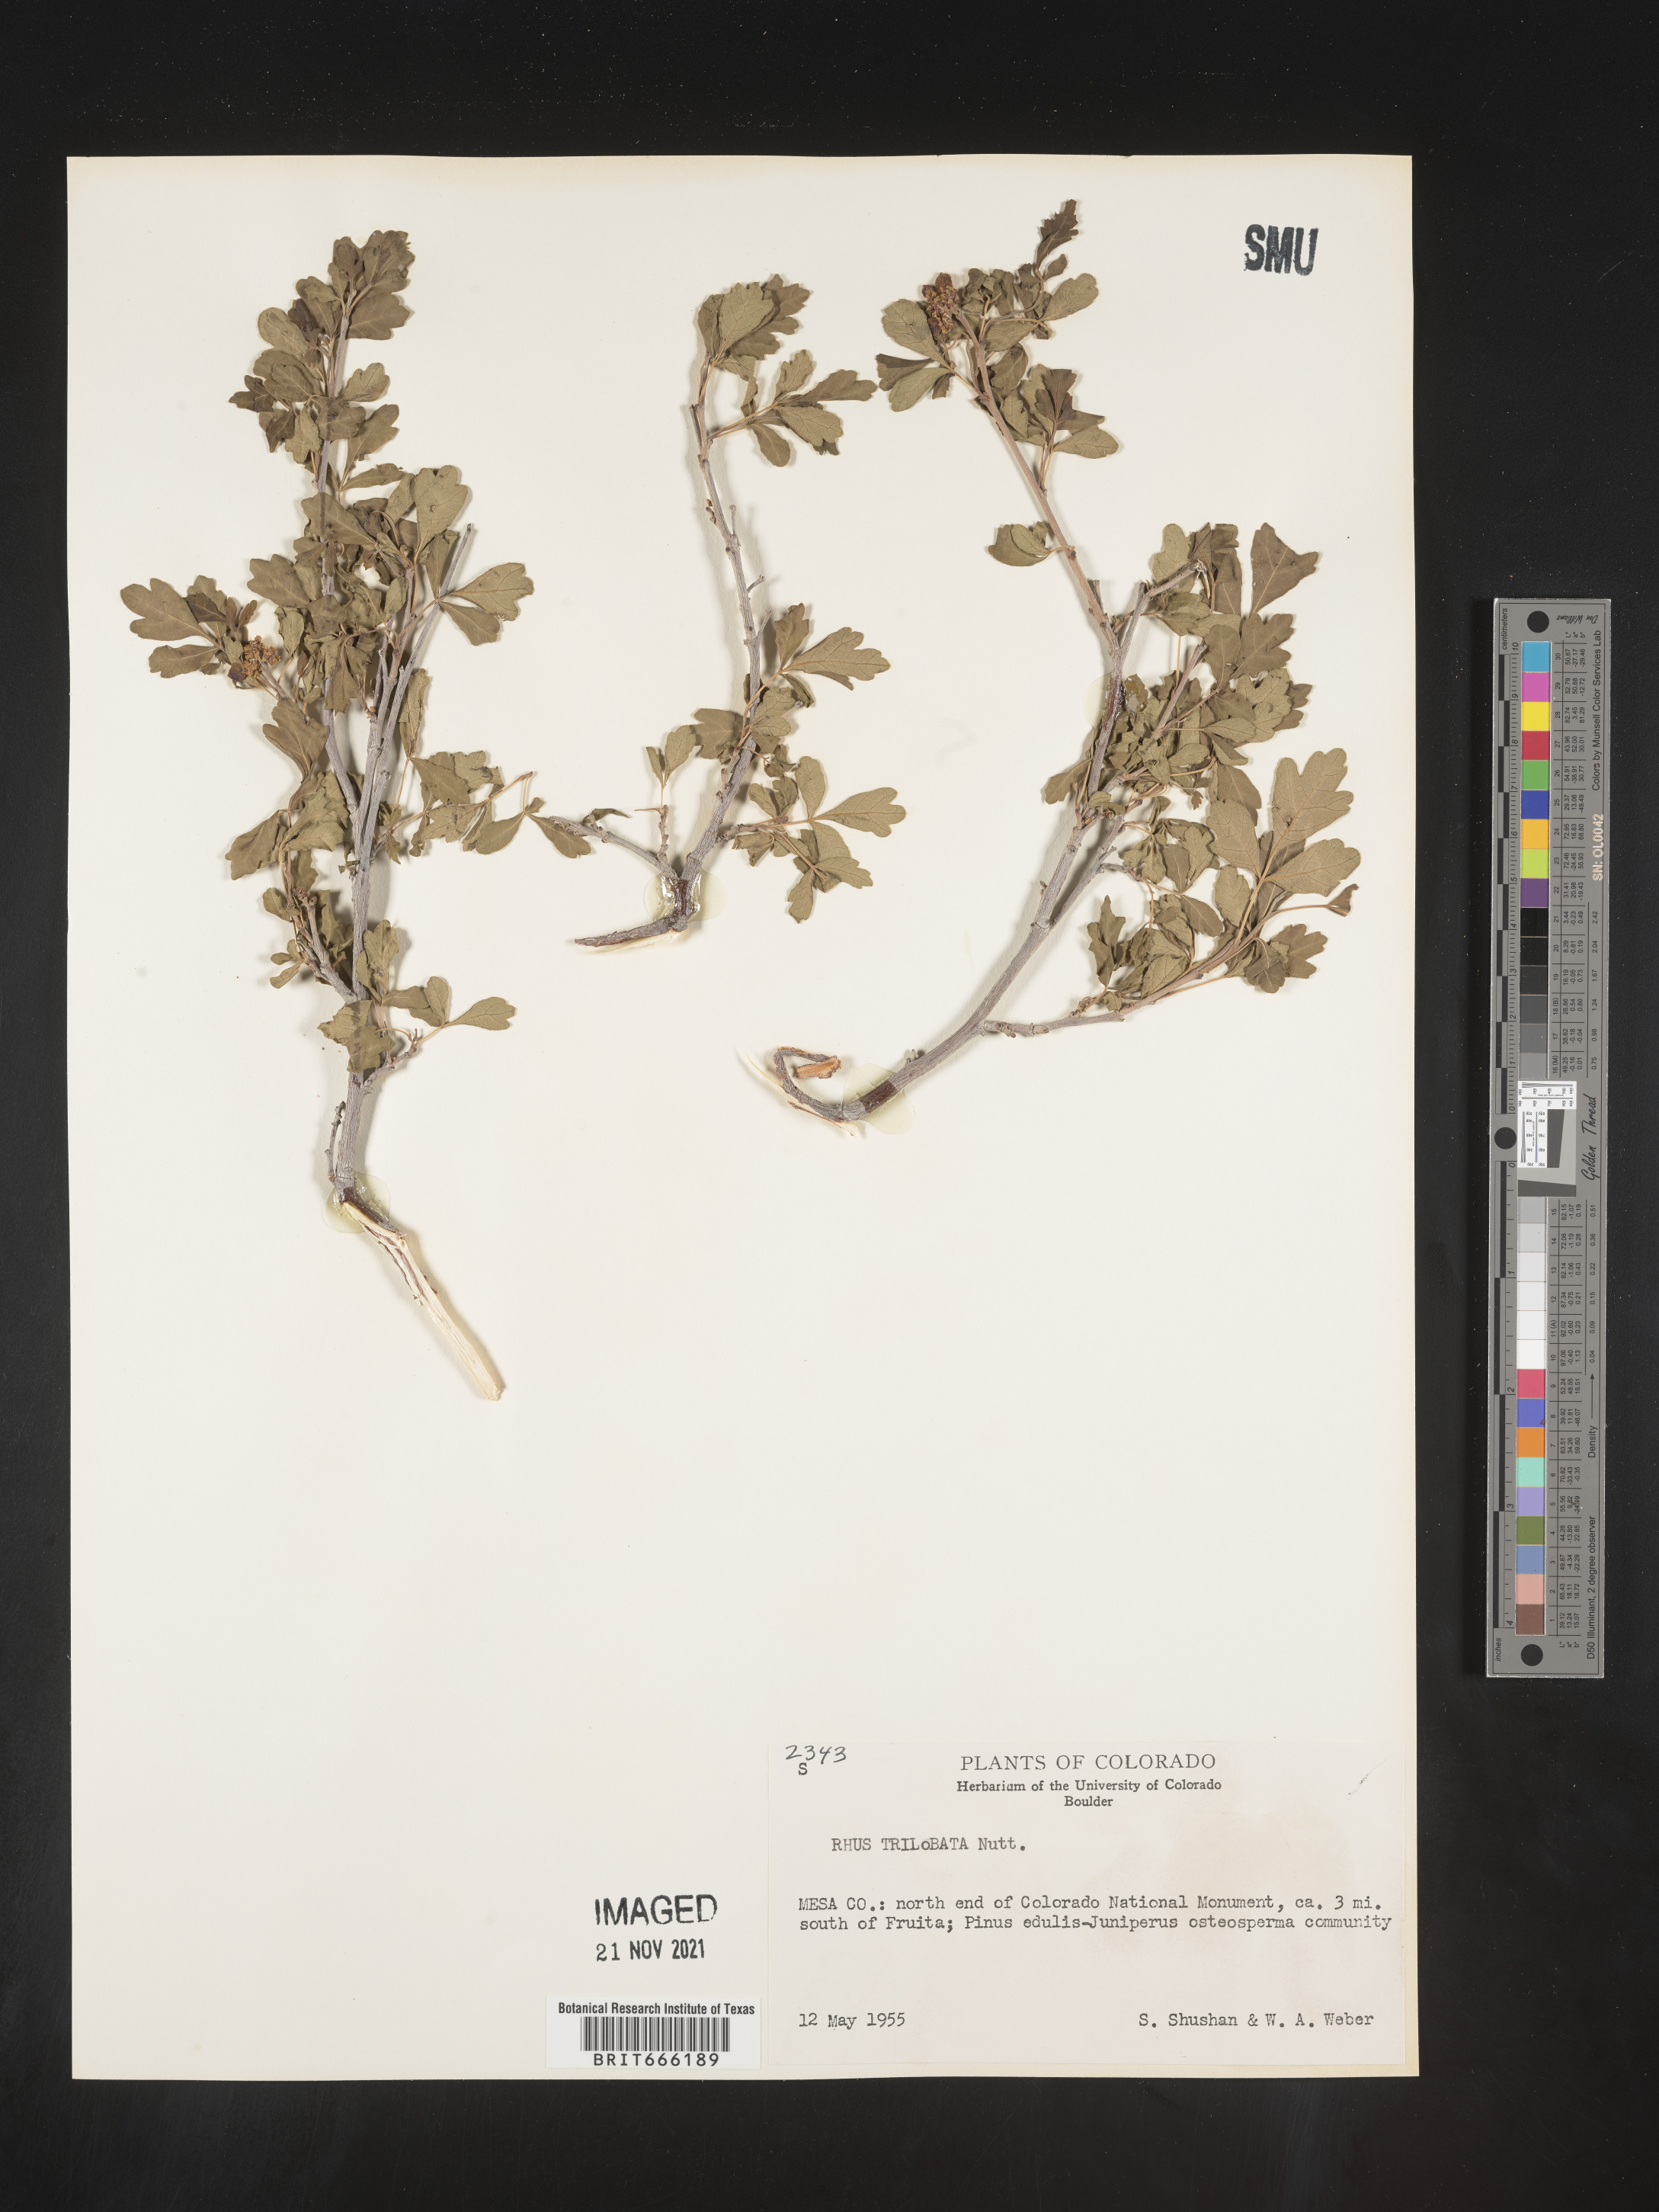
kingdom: Plantae
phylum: Tracheophyta
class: Magnoliopsida
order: Sapindales
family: Anacardiaceae
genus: Rhus
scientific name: Rhus trilobata
